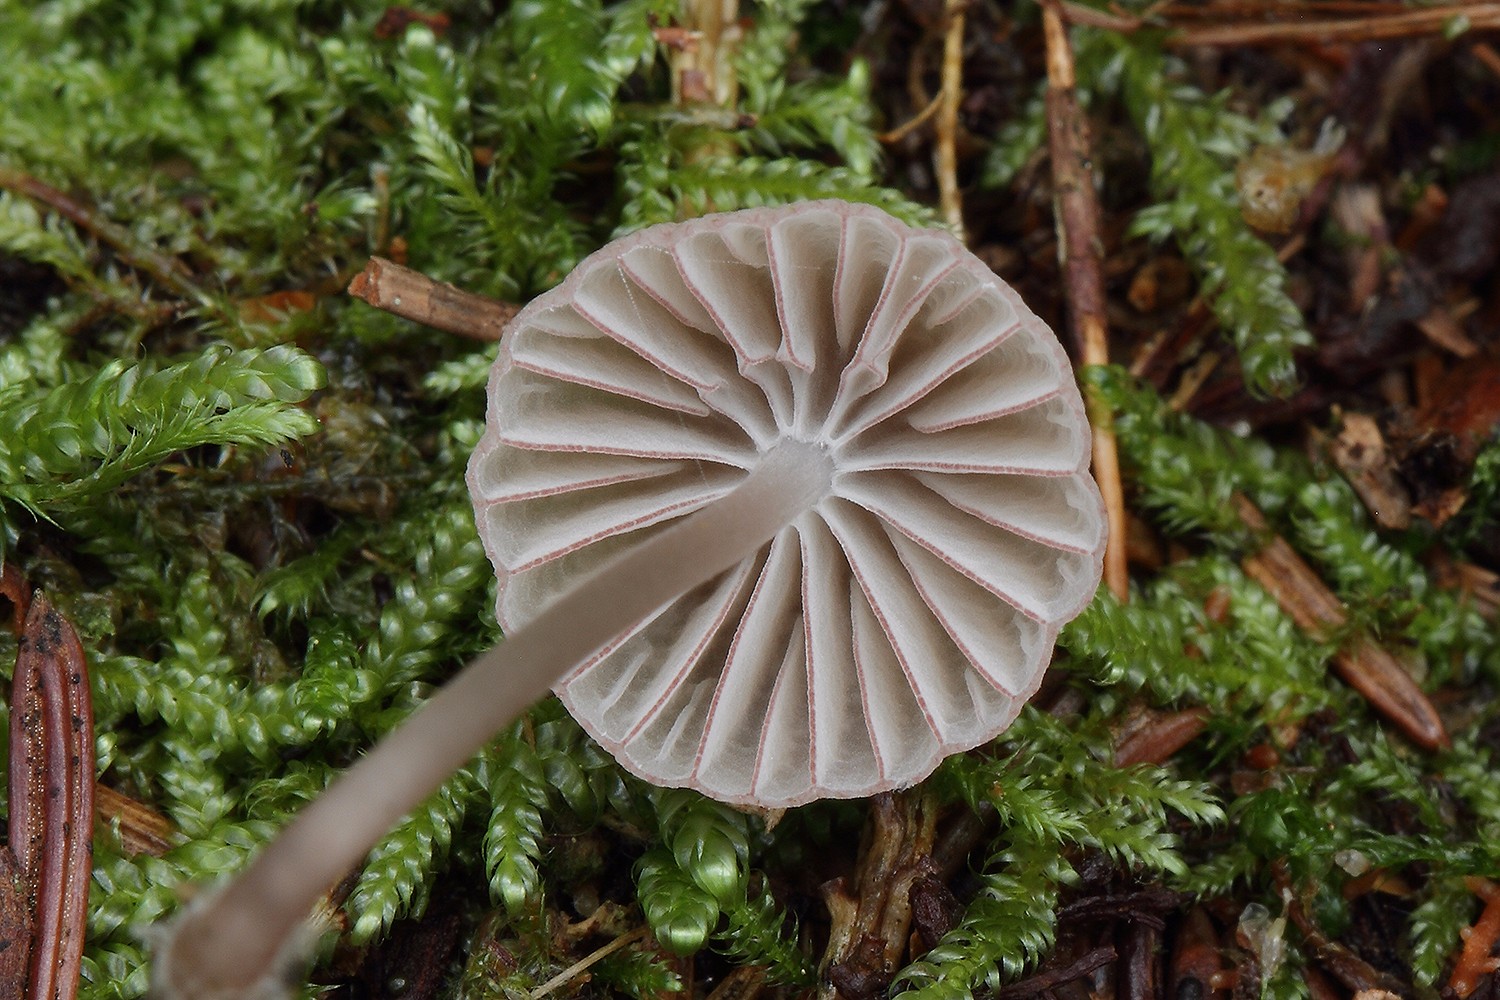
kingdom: Fungi
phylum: Basidiomycota
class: Agaricomycetes
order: Agaricales
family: Mycenaceae
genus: Mycena
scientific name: Mycena rubromarginata
